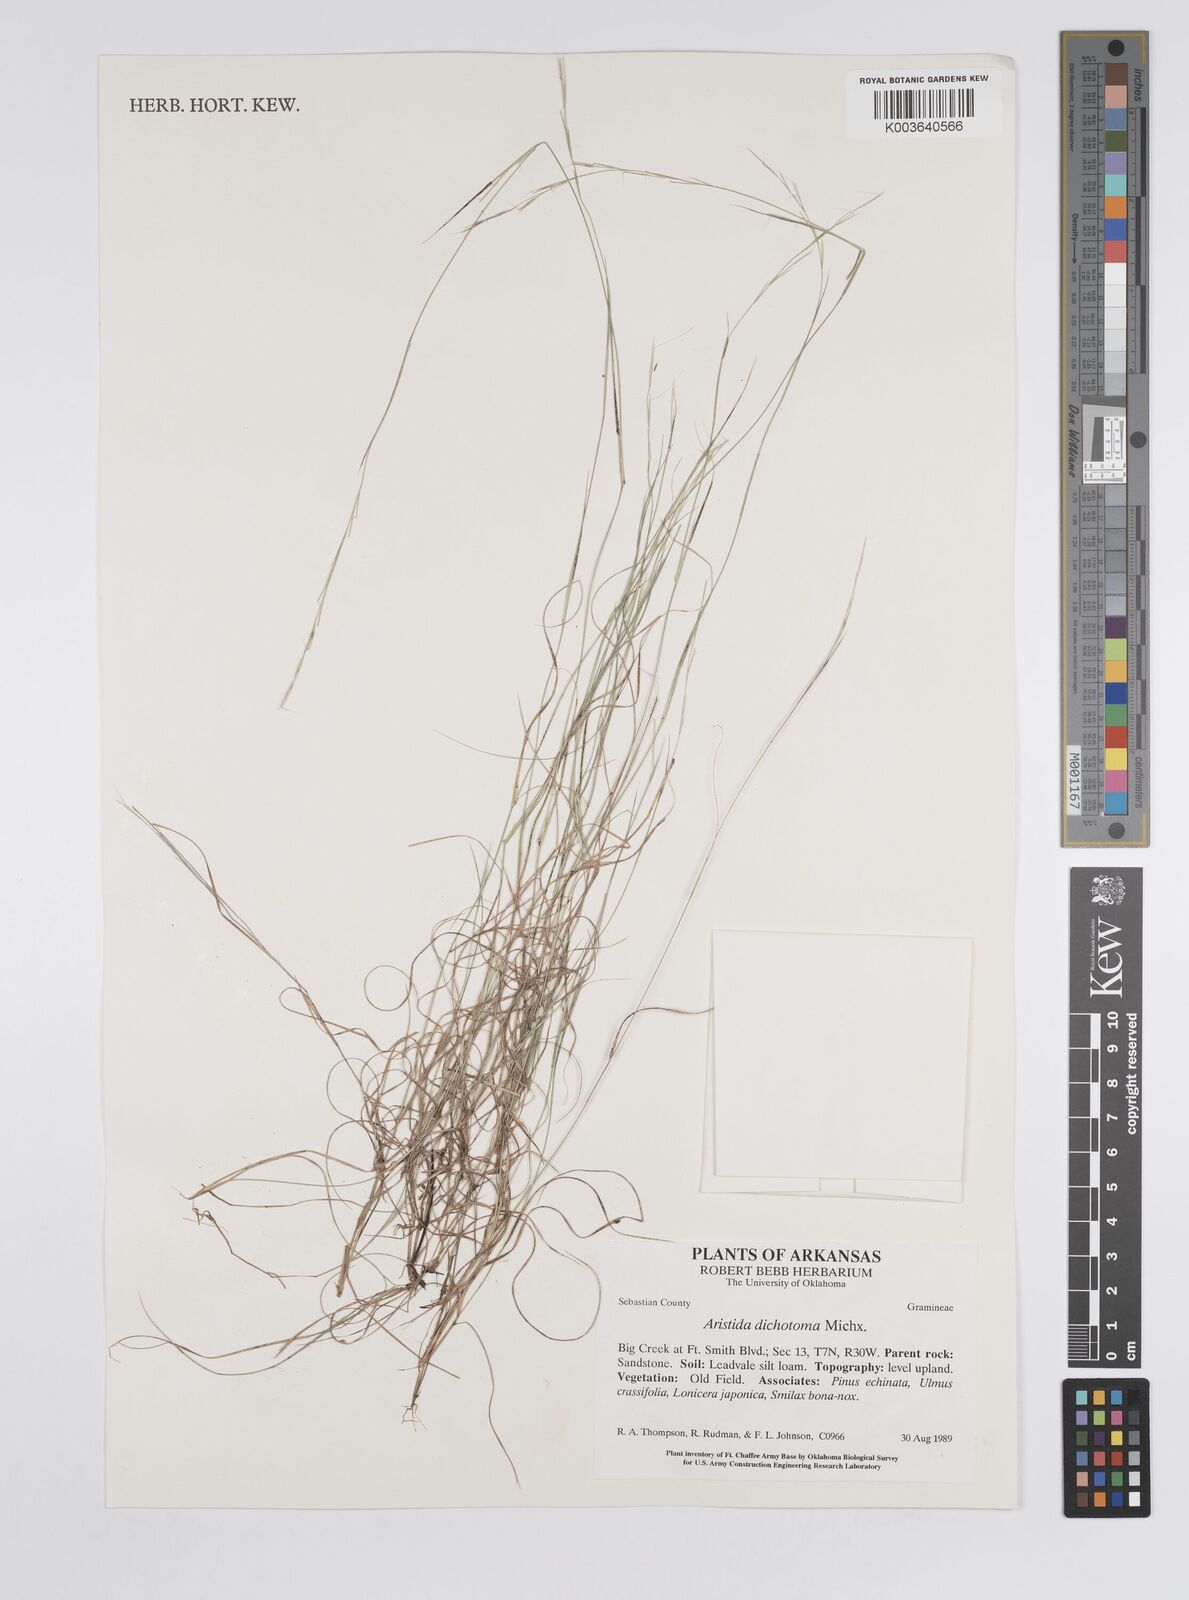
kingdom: Plantae
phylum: Tracheophyta
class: Liliopsida
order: Poales
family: Poaceae
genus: Aristida
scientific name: Aristida dichotoma
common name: Churchmouse three-awn
